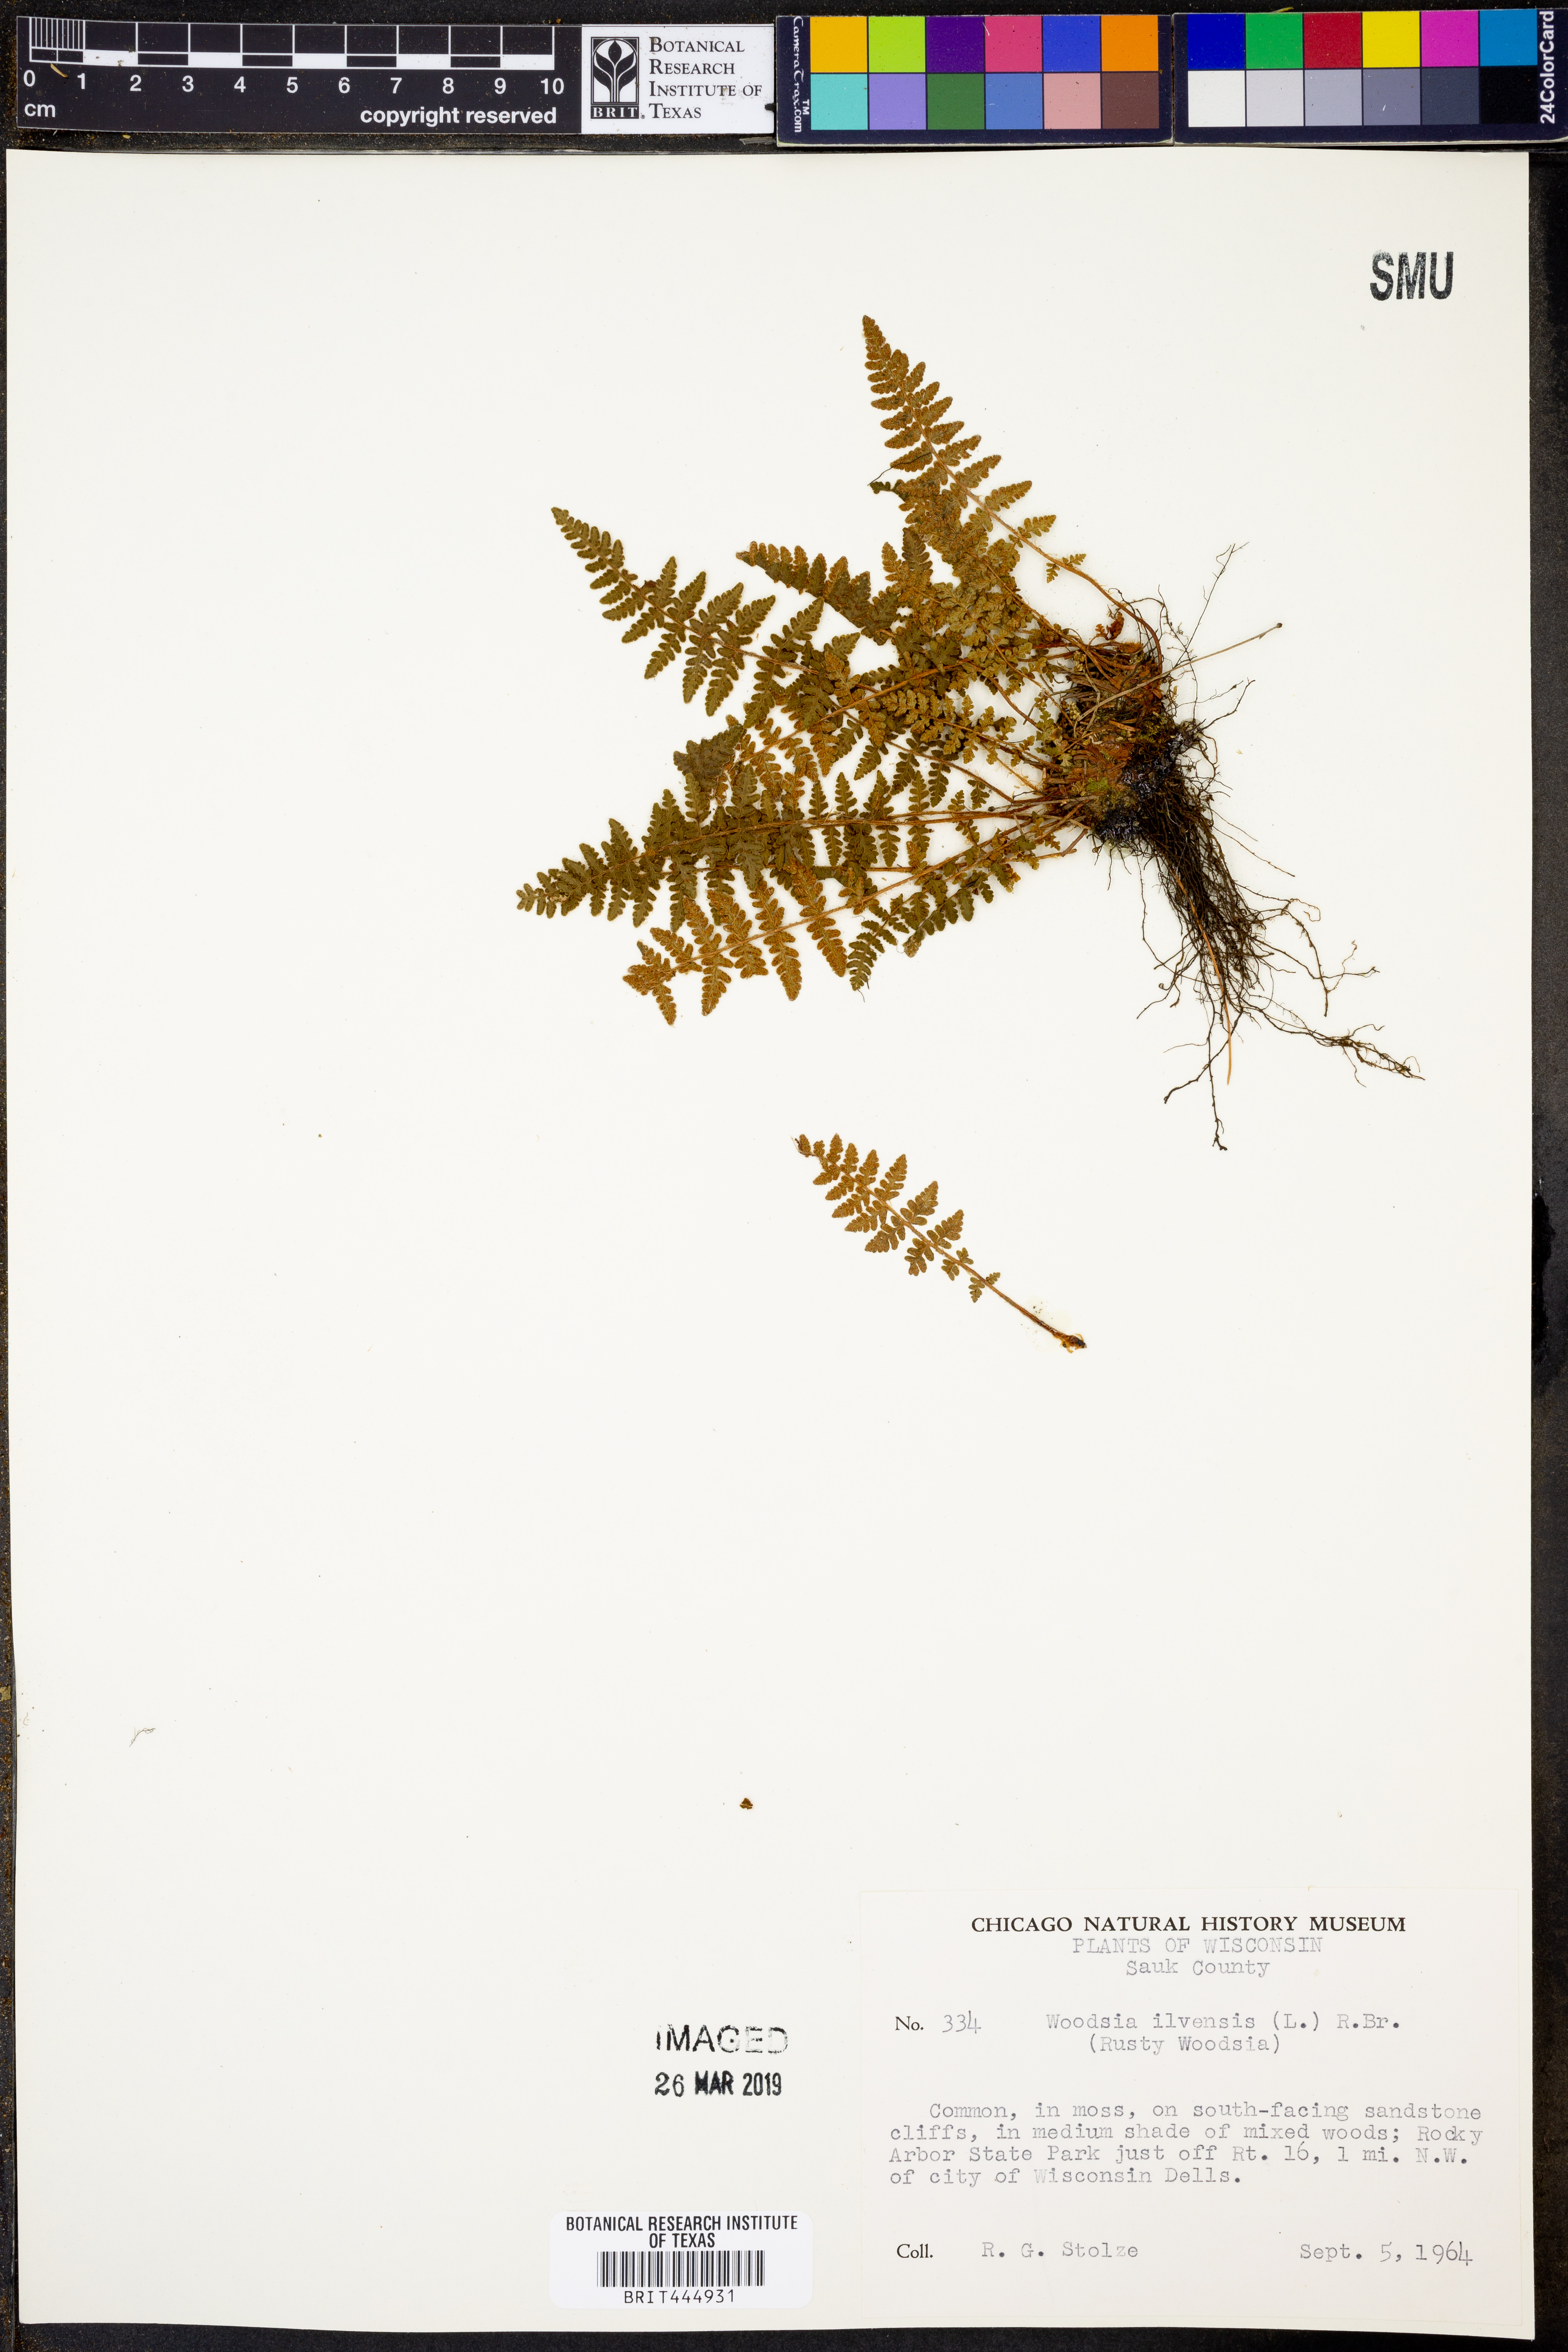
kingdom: Plantae
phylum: Tracheophyta
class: Polypodiopsida
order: Polypodiales
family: Woodsiaceae
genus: Woodsia
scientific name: Woodsia ilvensis
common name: Fragrant woodsia
